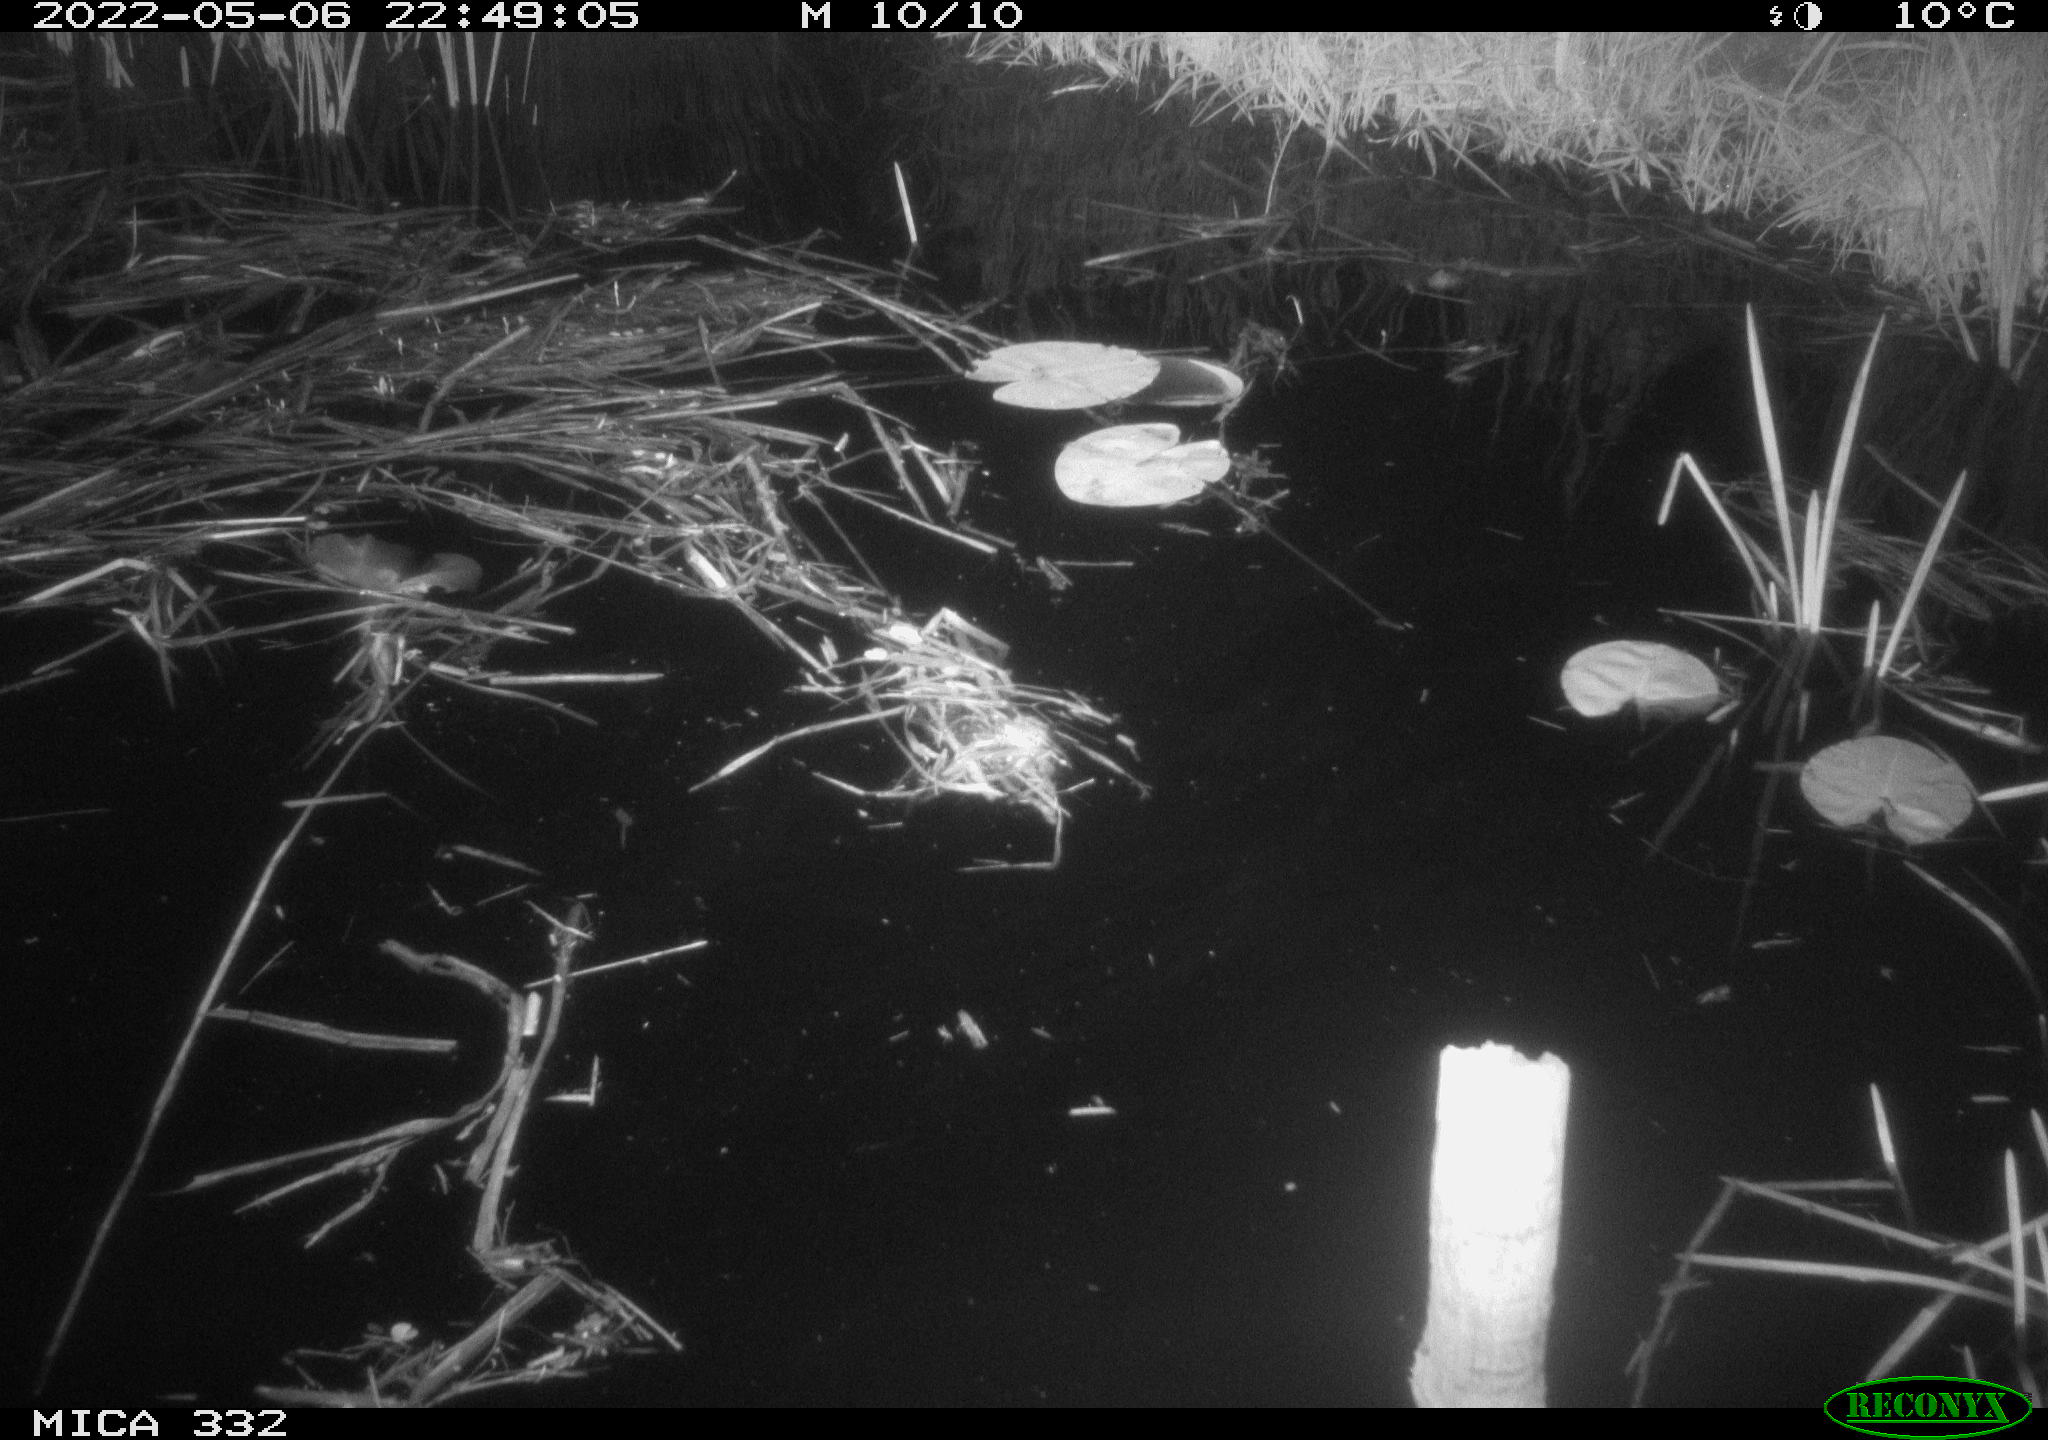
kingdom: Animalia
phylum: Chordata
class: Aves
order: Anseriformes
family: Anatidae
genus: Anas
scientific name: Anas platyrhynchos
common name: Mallard
